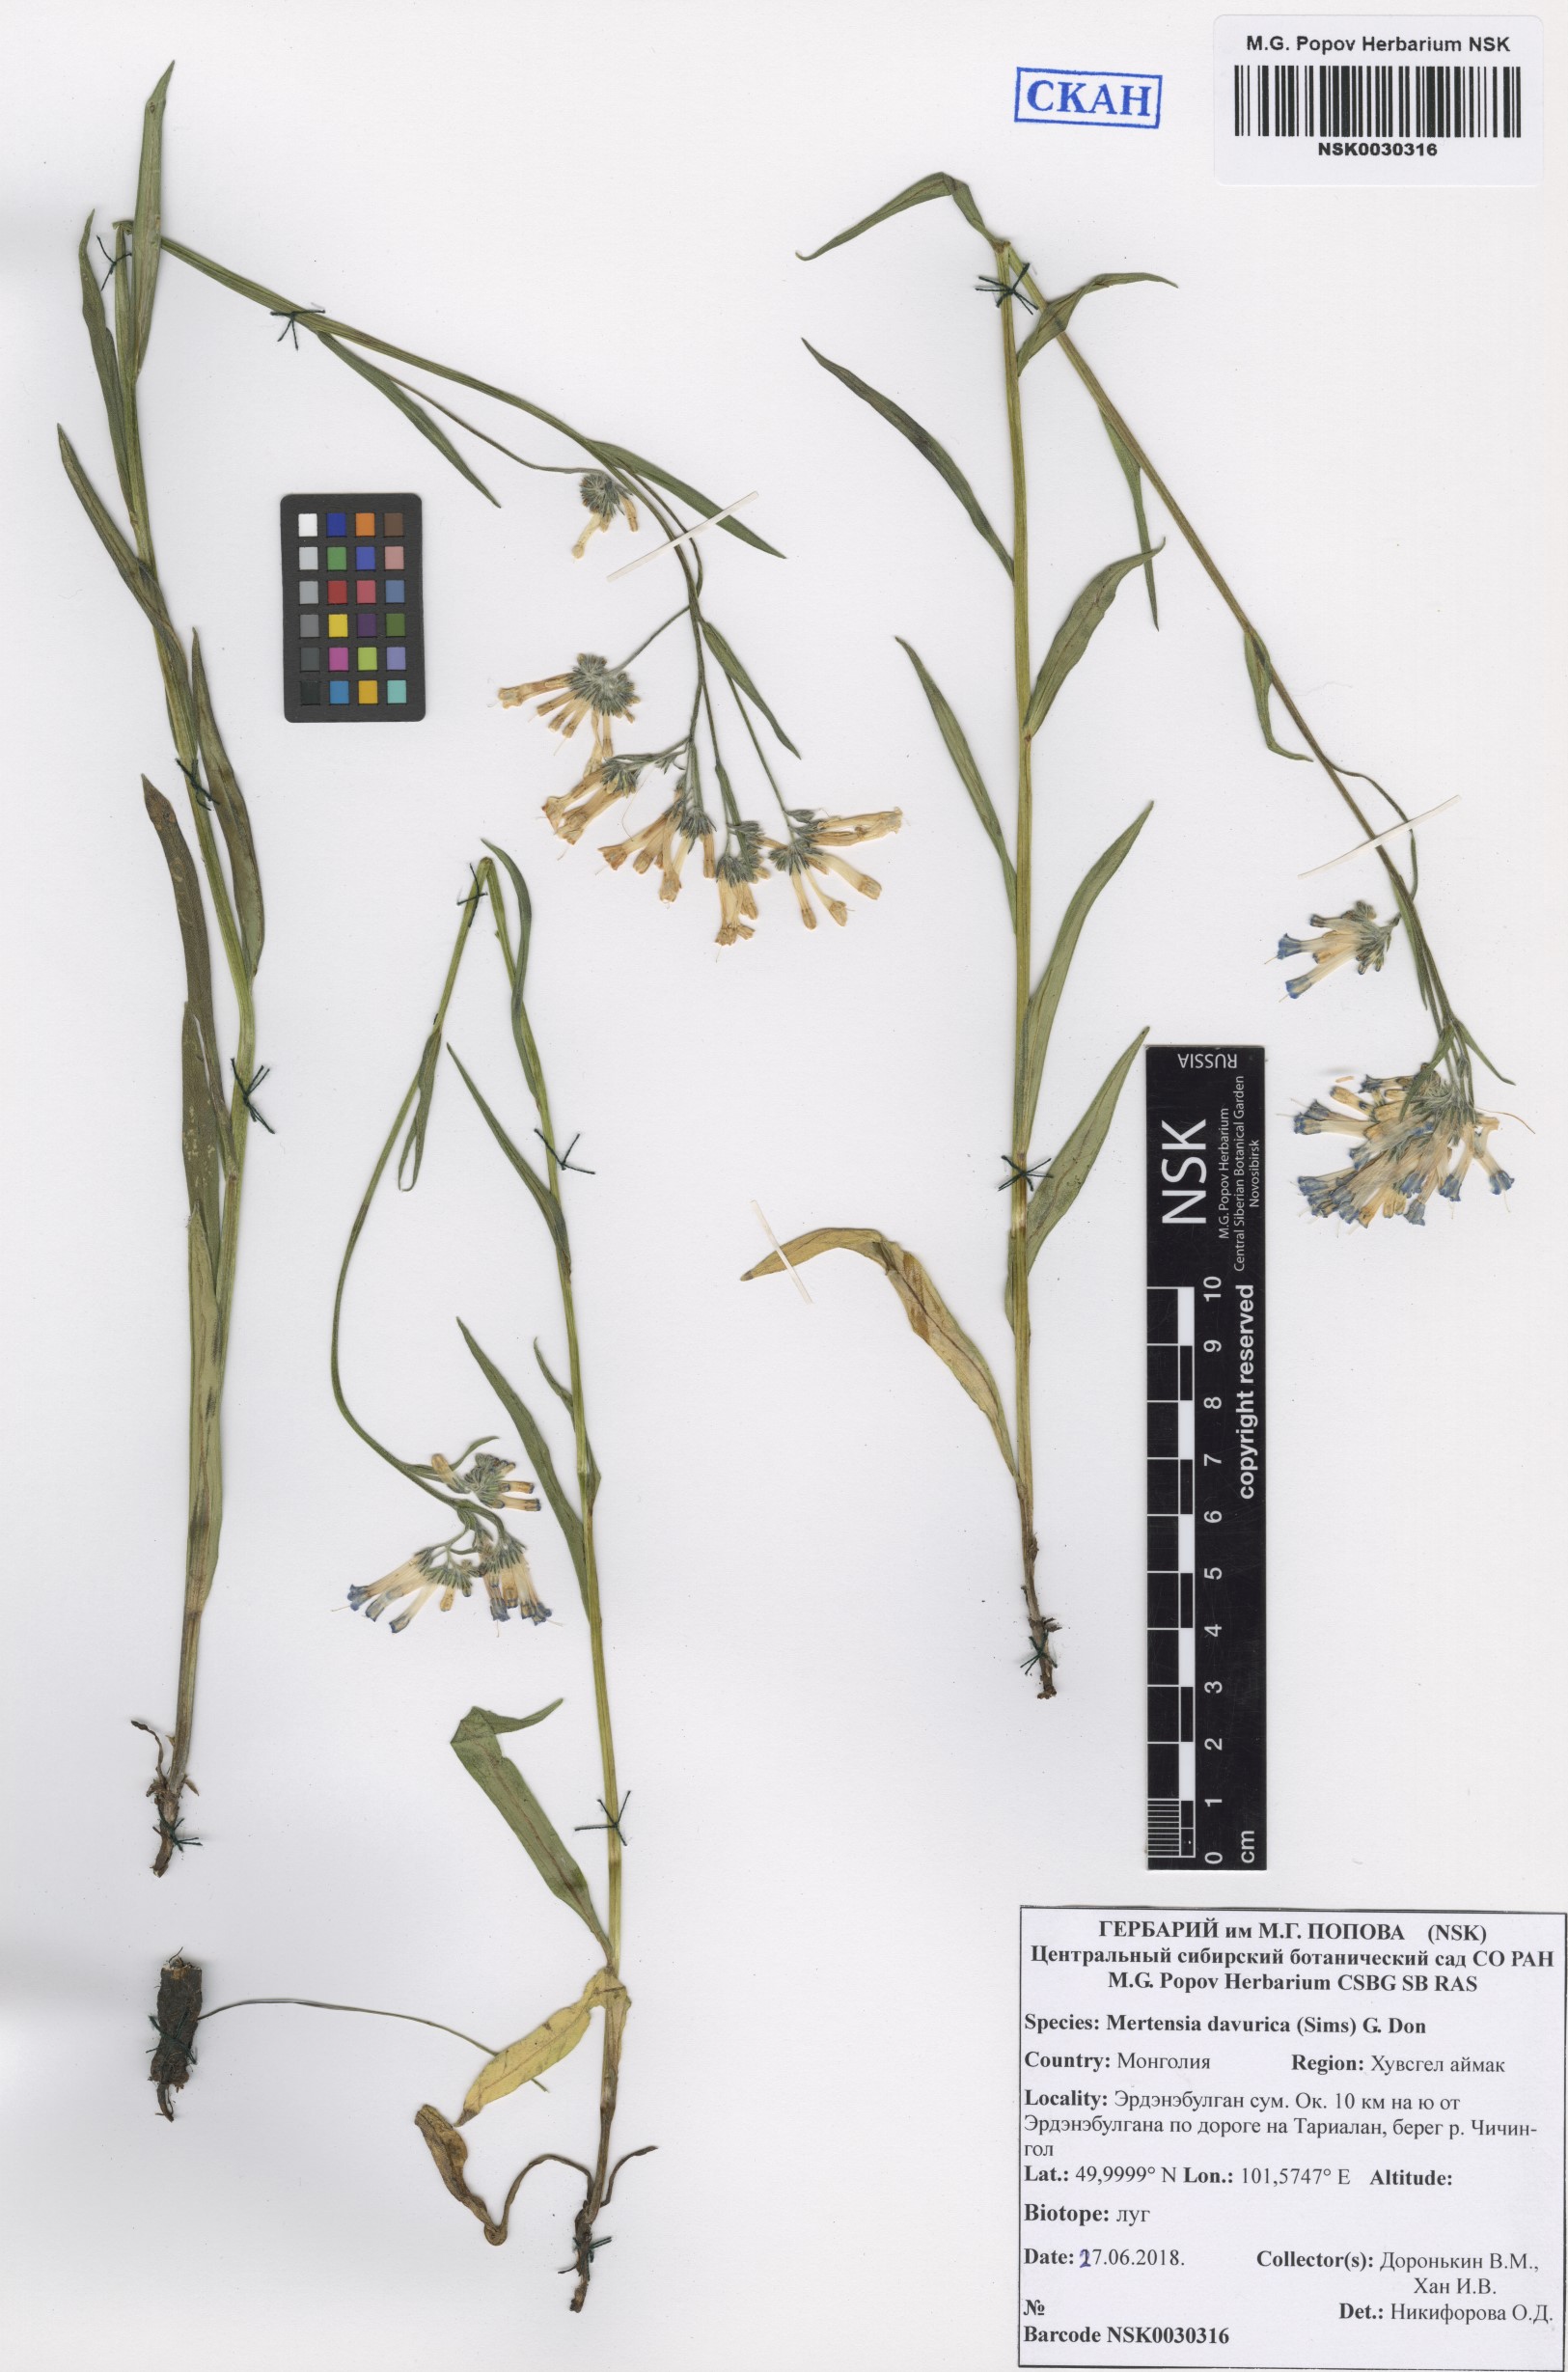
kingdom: Plantae
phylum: Tracheophyta
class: Magnoliopsida
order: Boraginales
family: Boraginaceae
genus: Mertensia
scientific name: Mertensia davurica
